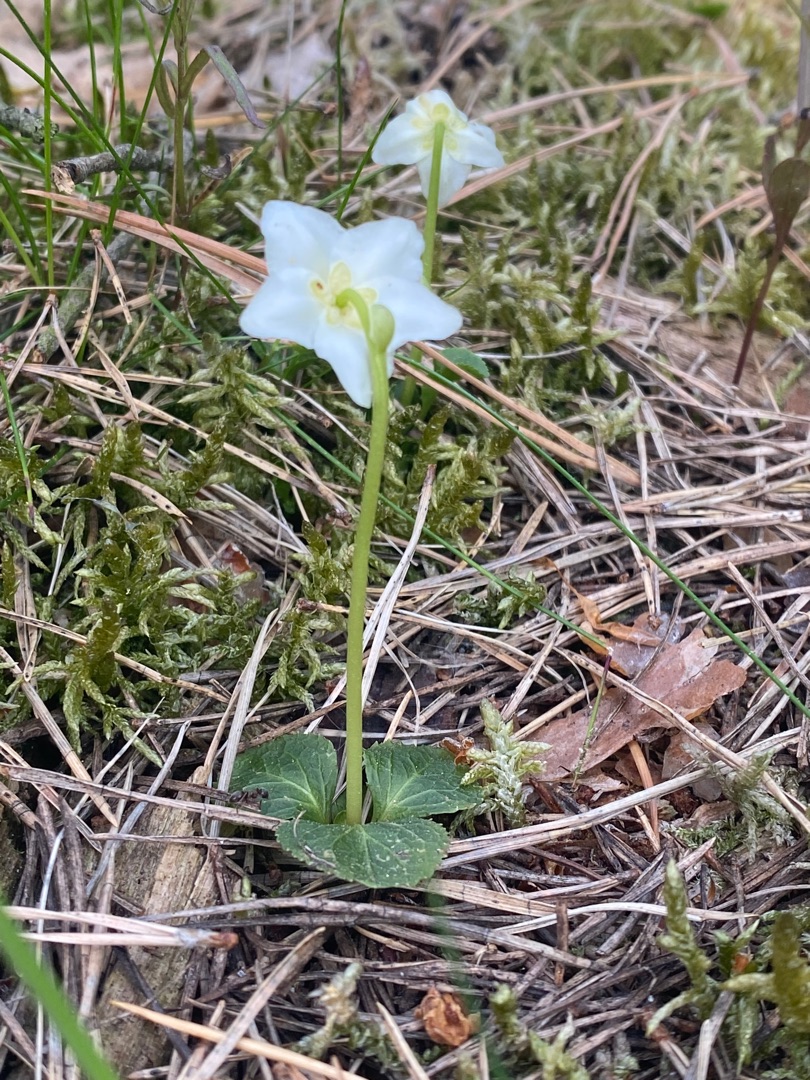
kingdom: Plantae
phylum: Tracheophyta
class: Magnoliopsida
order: Ericales
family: Ericaceae
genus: Moneses
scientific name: Moneses uniflora
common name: Enblomstret vintergrøn
